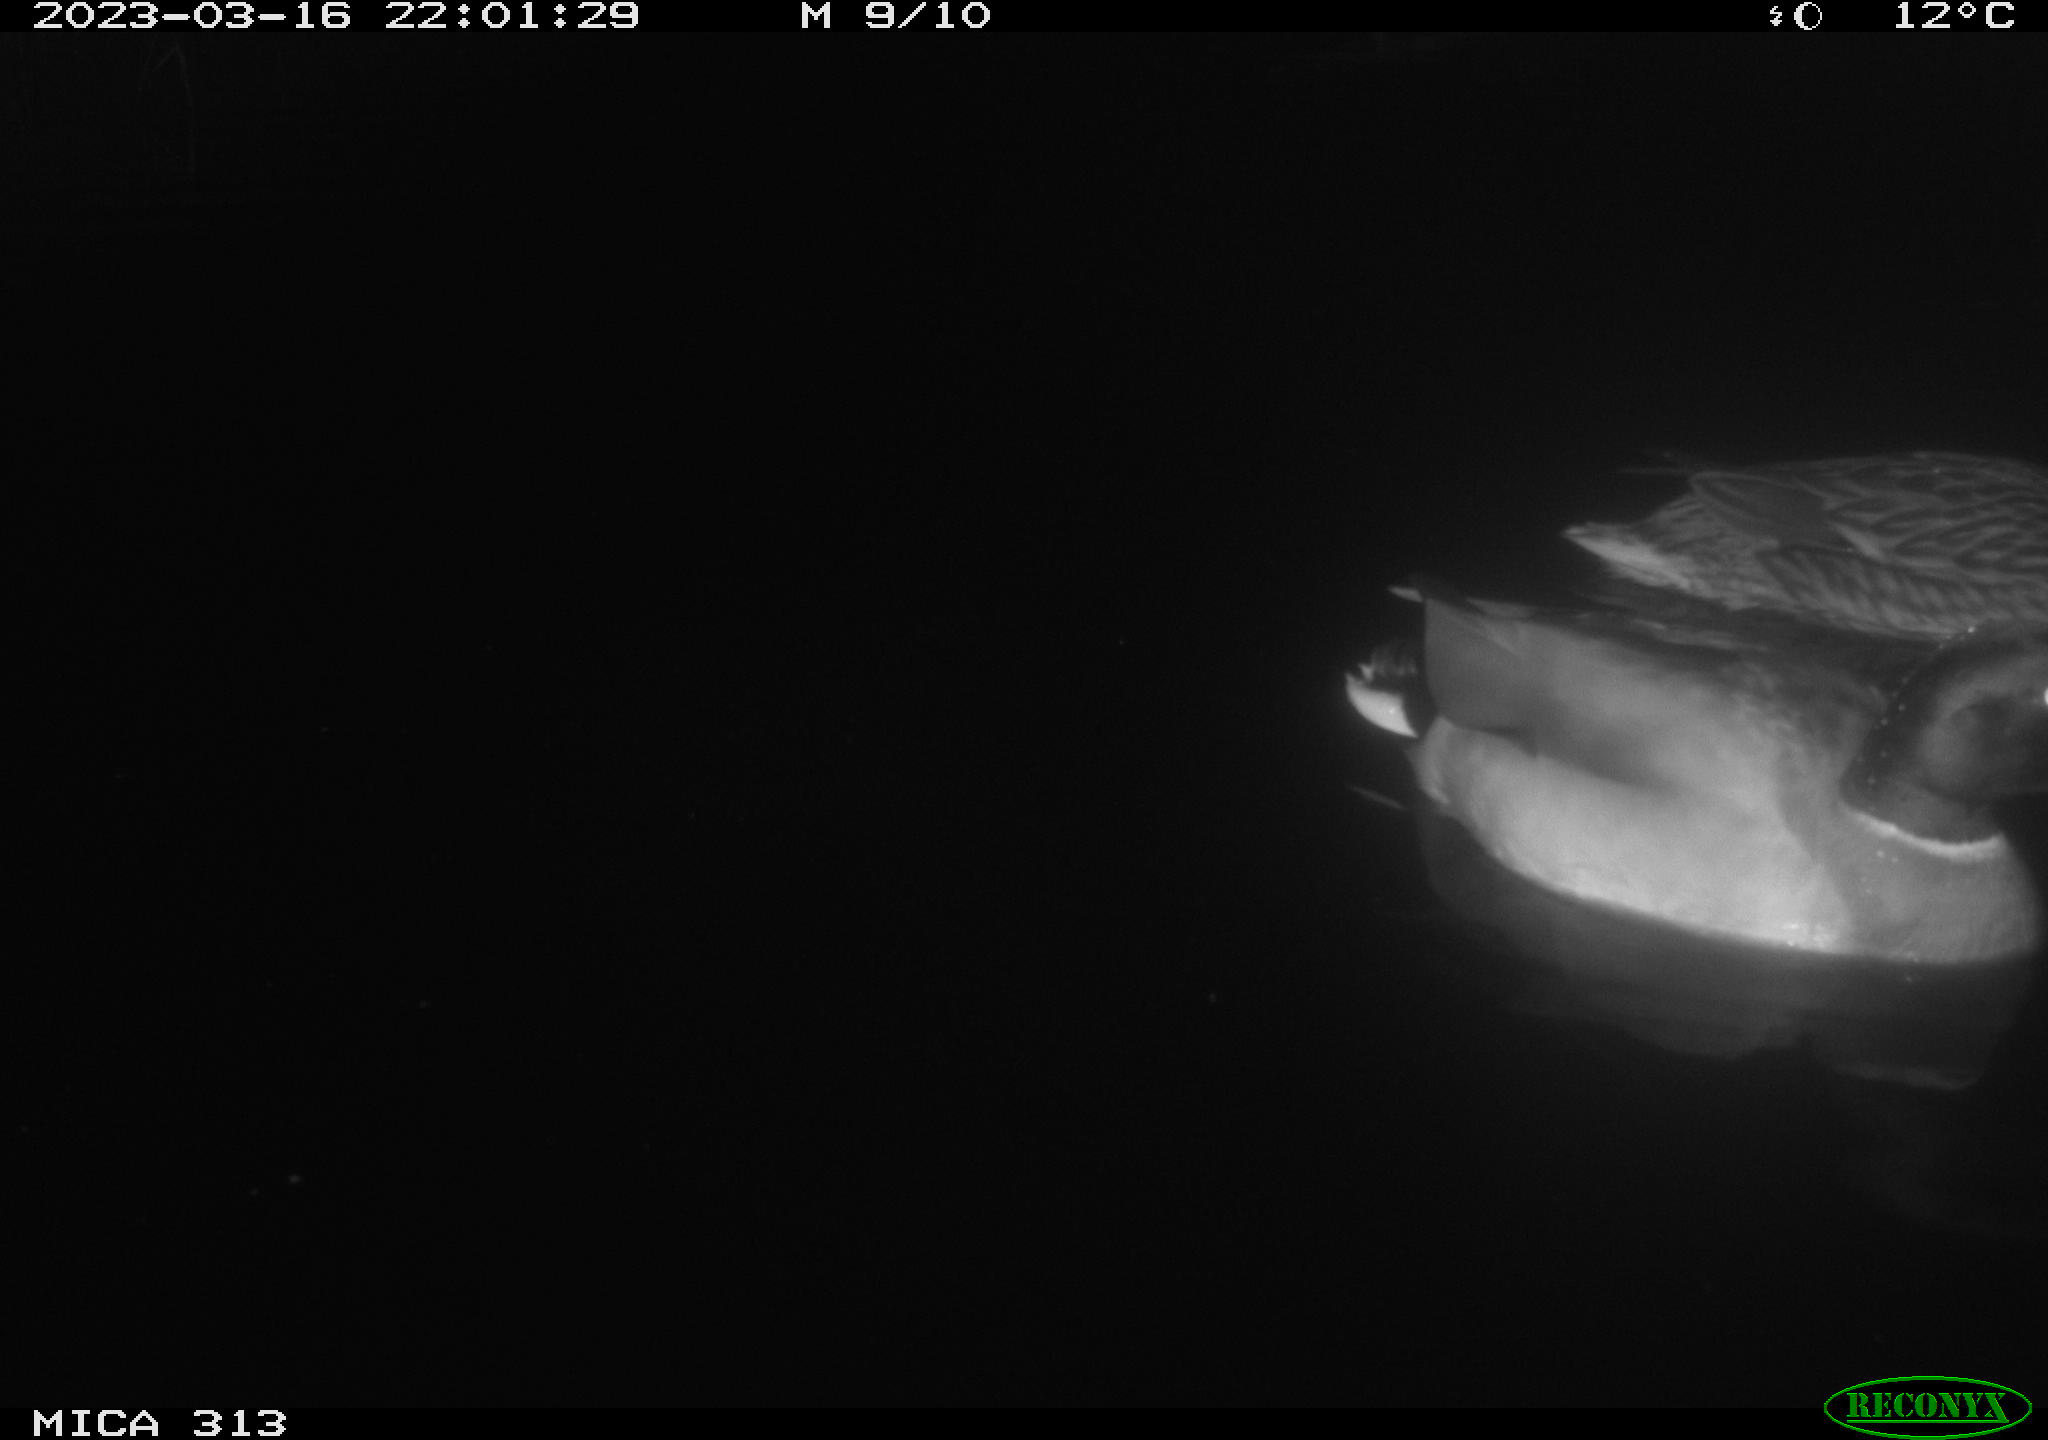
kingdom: Animalia
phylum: Chordata
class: Aves
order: Anseriformes
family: Anatidae
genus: Anas
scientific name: Anas
